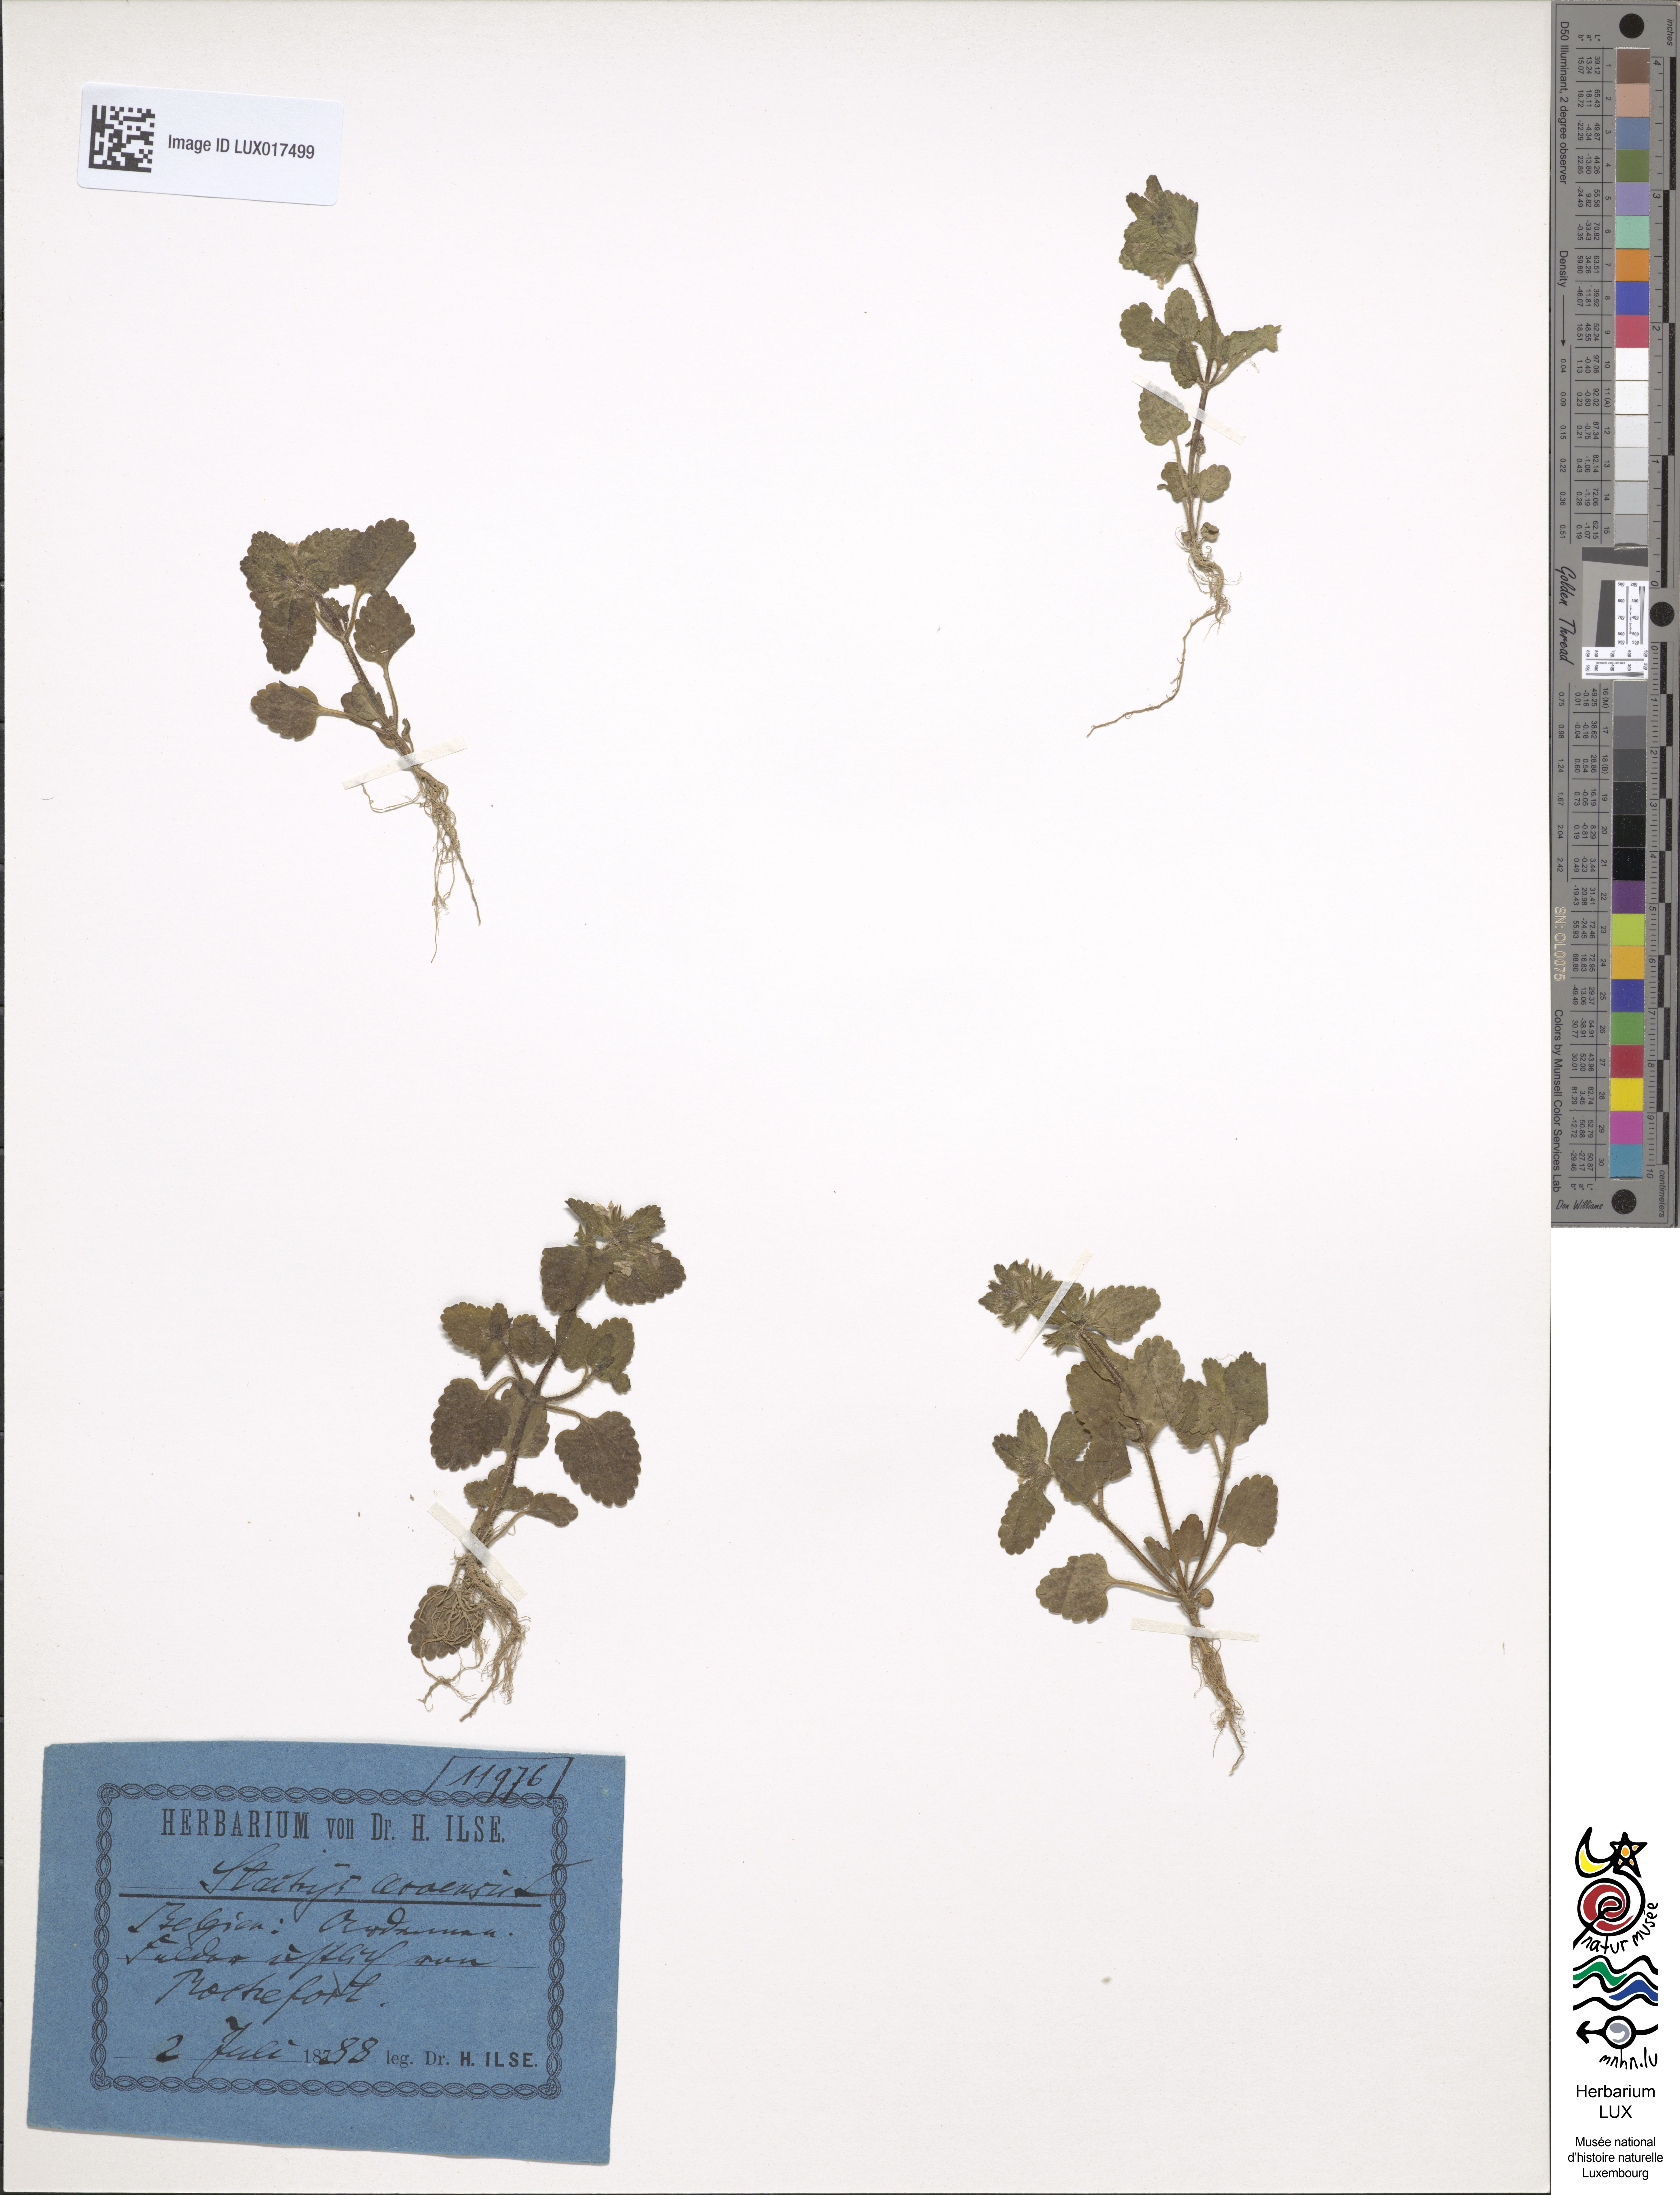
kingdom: Plantae
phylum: Tracheophyta
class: Magnoliopsida
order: Lamiales
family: Lamiaceae
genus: Stachys
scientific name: Stachys arvensis
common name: Field woundwort
